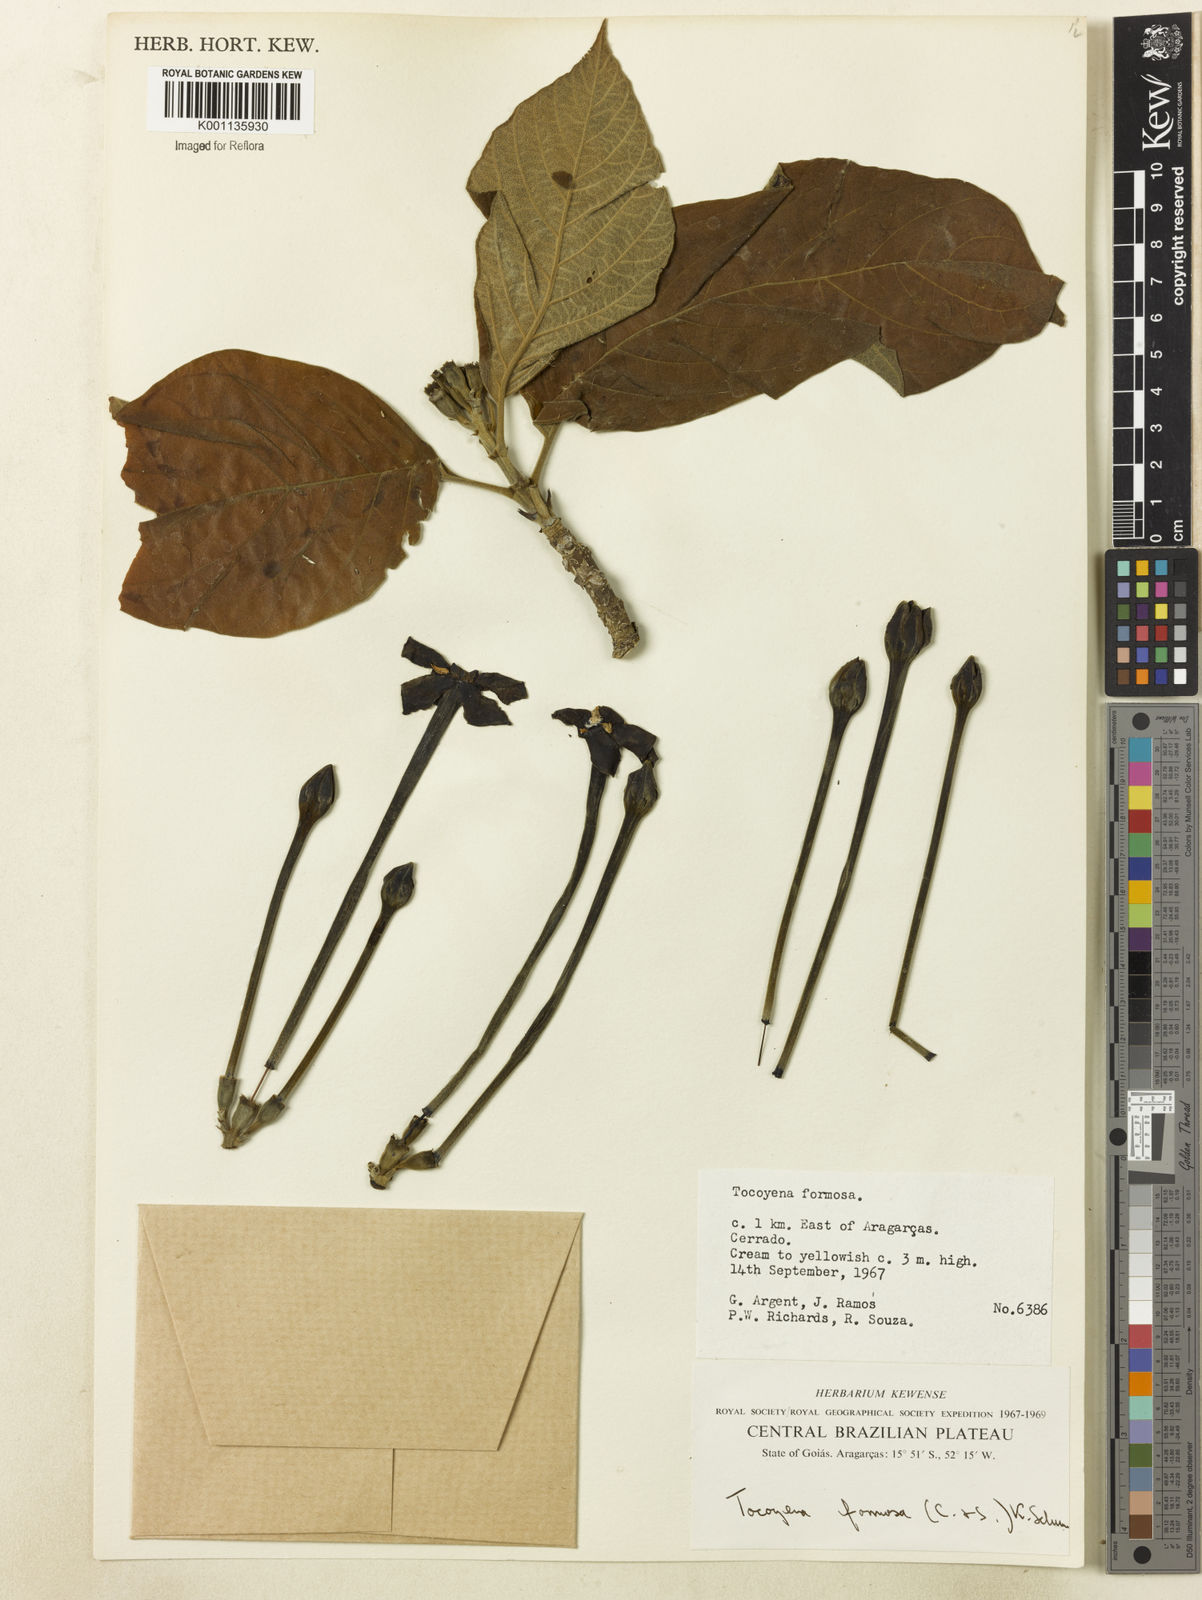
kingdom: Plantae
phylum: Tracheophyta
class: Magnoliopsida
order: Gentianales
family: Rubiaceae
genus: Tocoyena
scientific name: Tocoyena formosa
